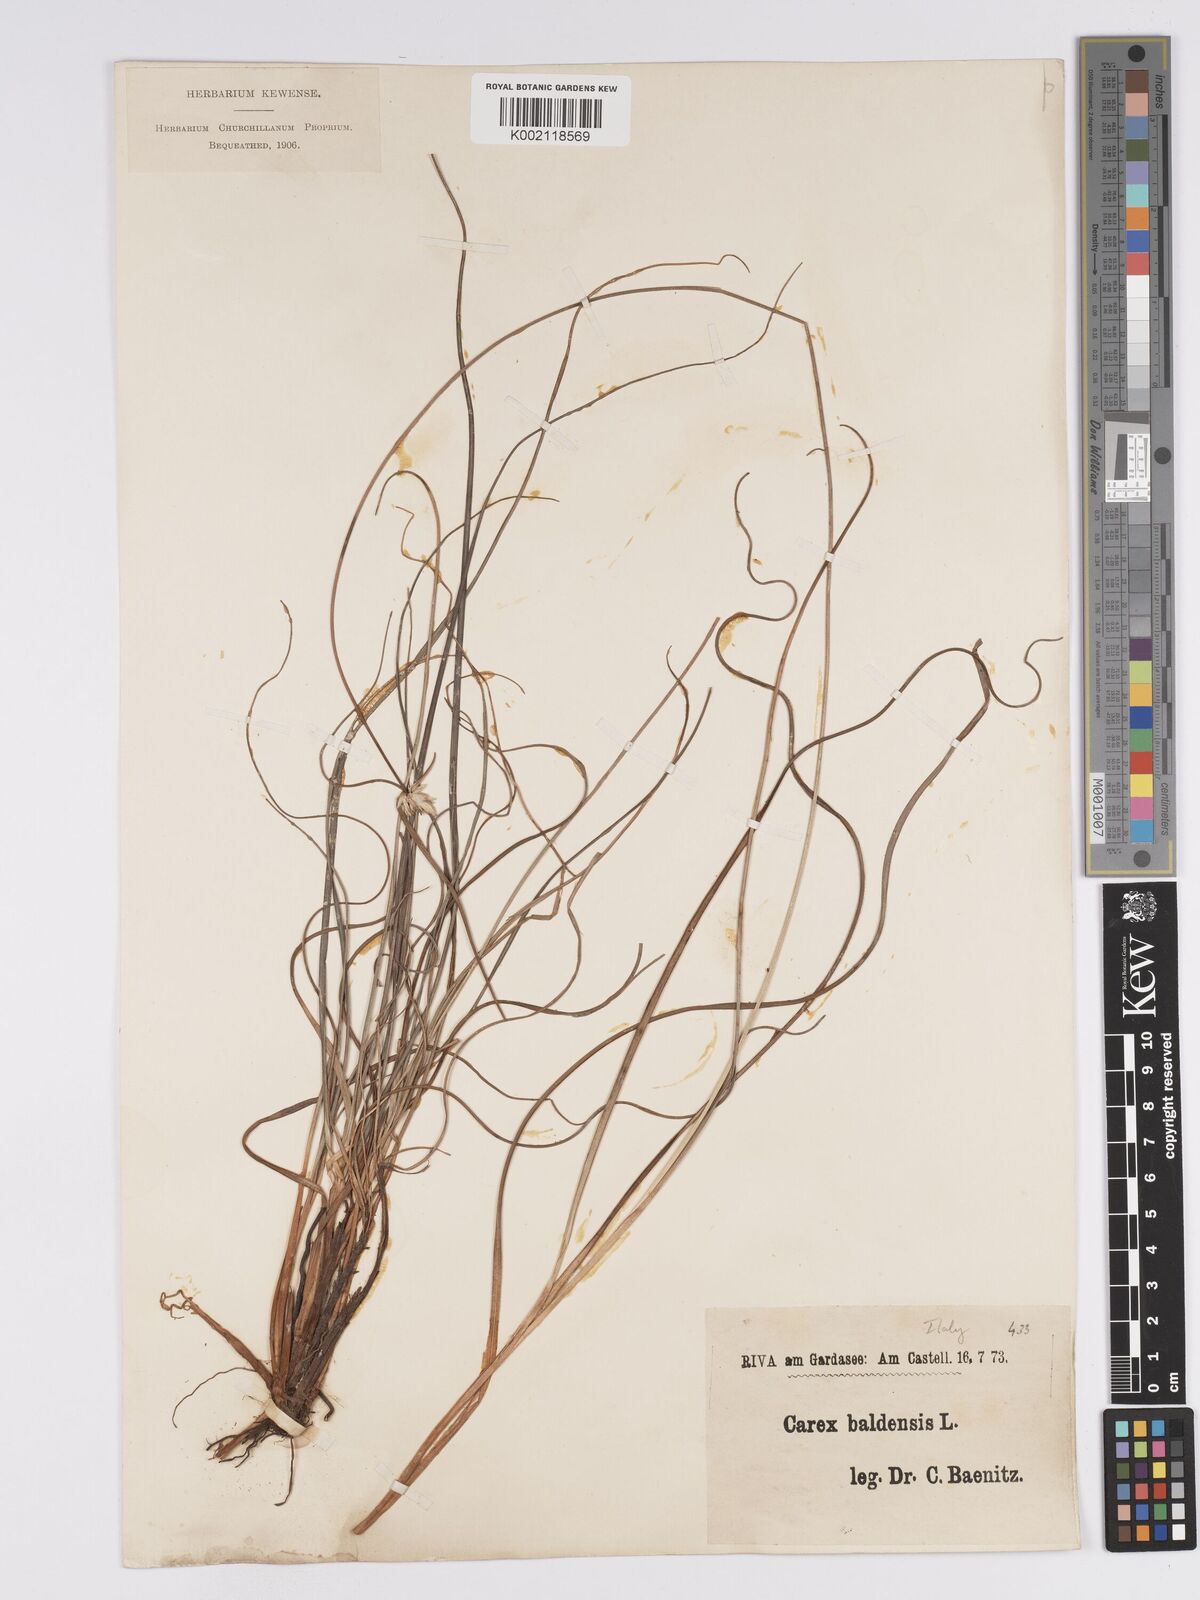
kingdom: Plantae
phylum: Tracheophyta
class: Liliopsida
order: Poales
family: Cyperaceae
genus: Carex
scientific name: Carex baldensis
